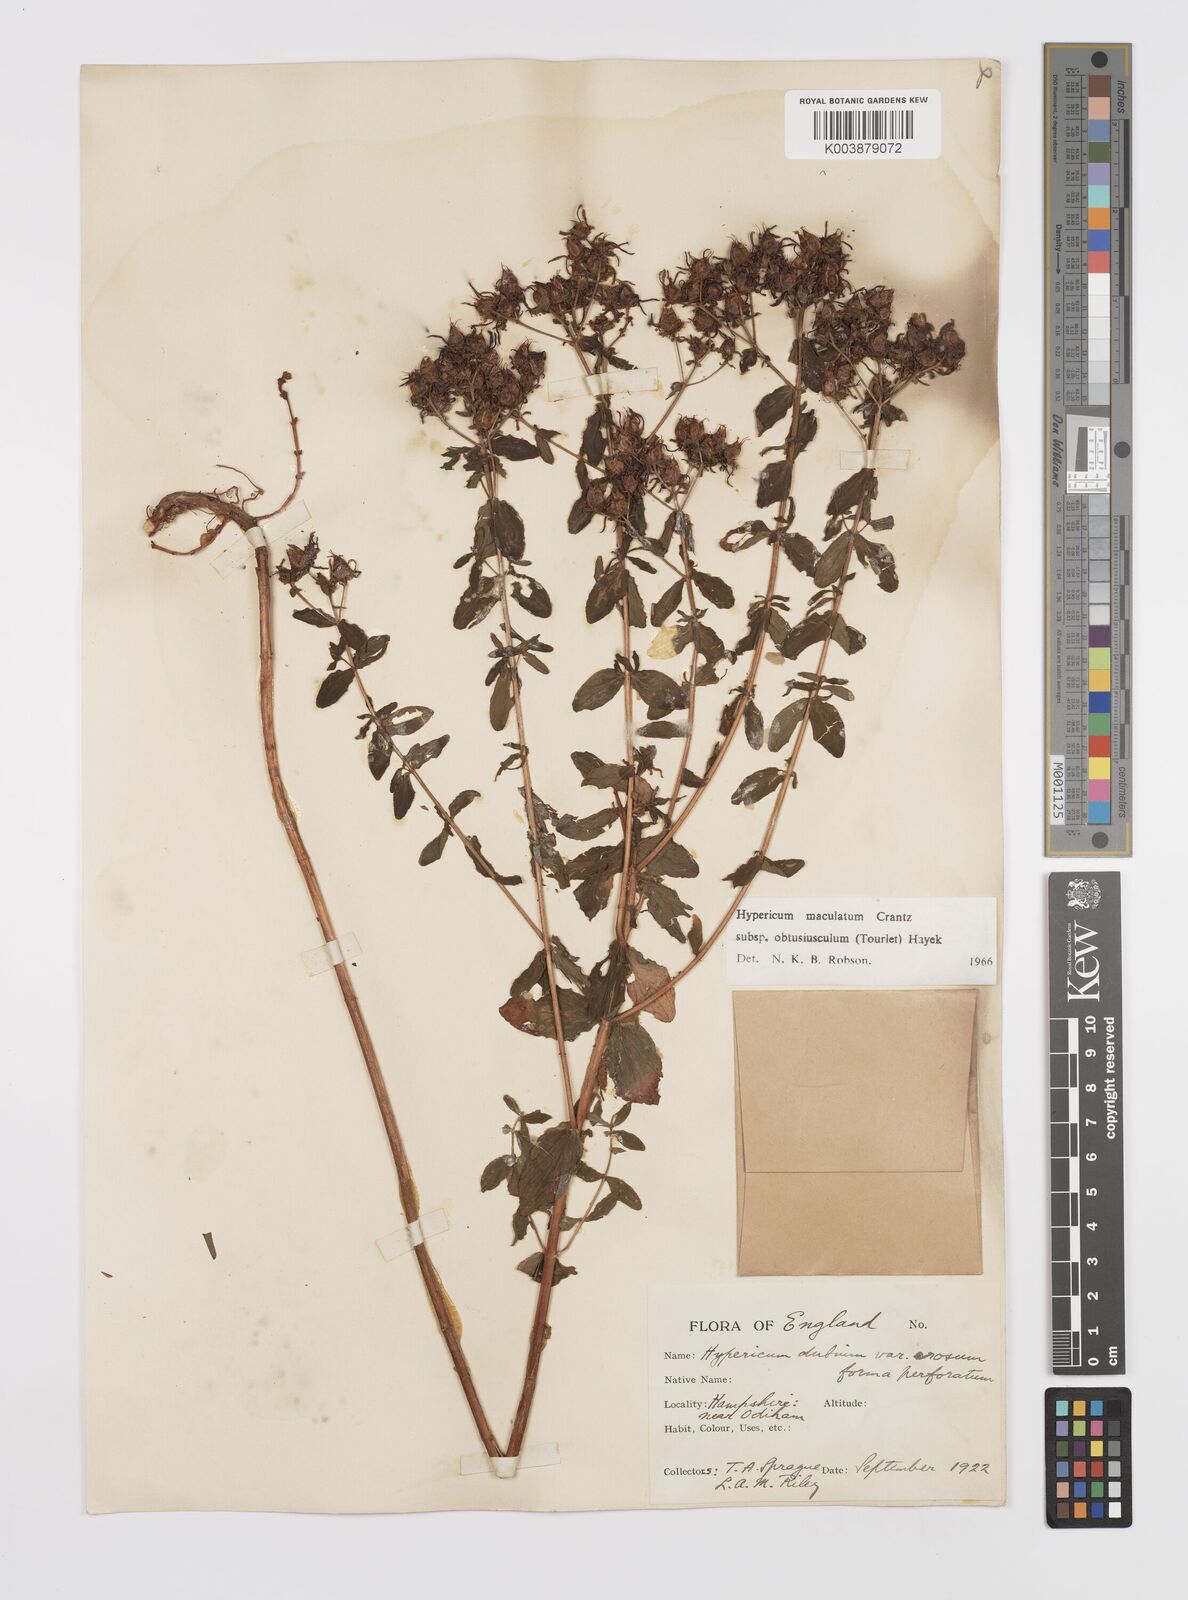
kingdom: Plantae
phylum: Tracheophyta
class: Magnoliopsida
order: Malpighiales
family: Hypericaceae
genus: Hypericum
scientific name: Hypericum dubium
